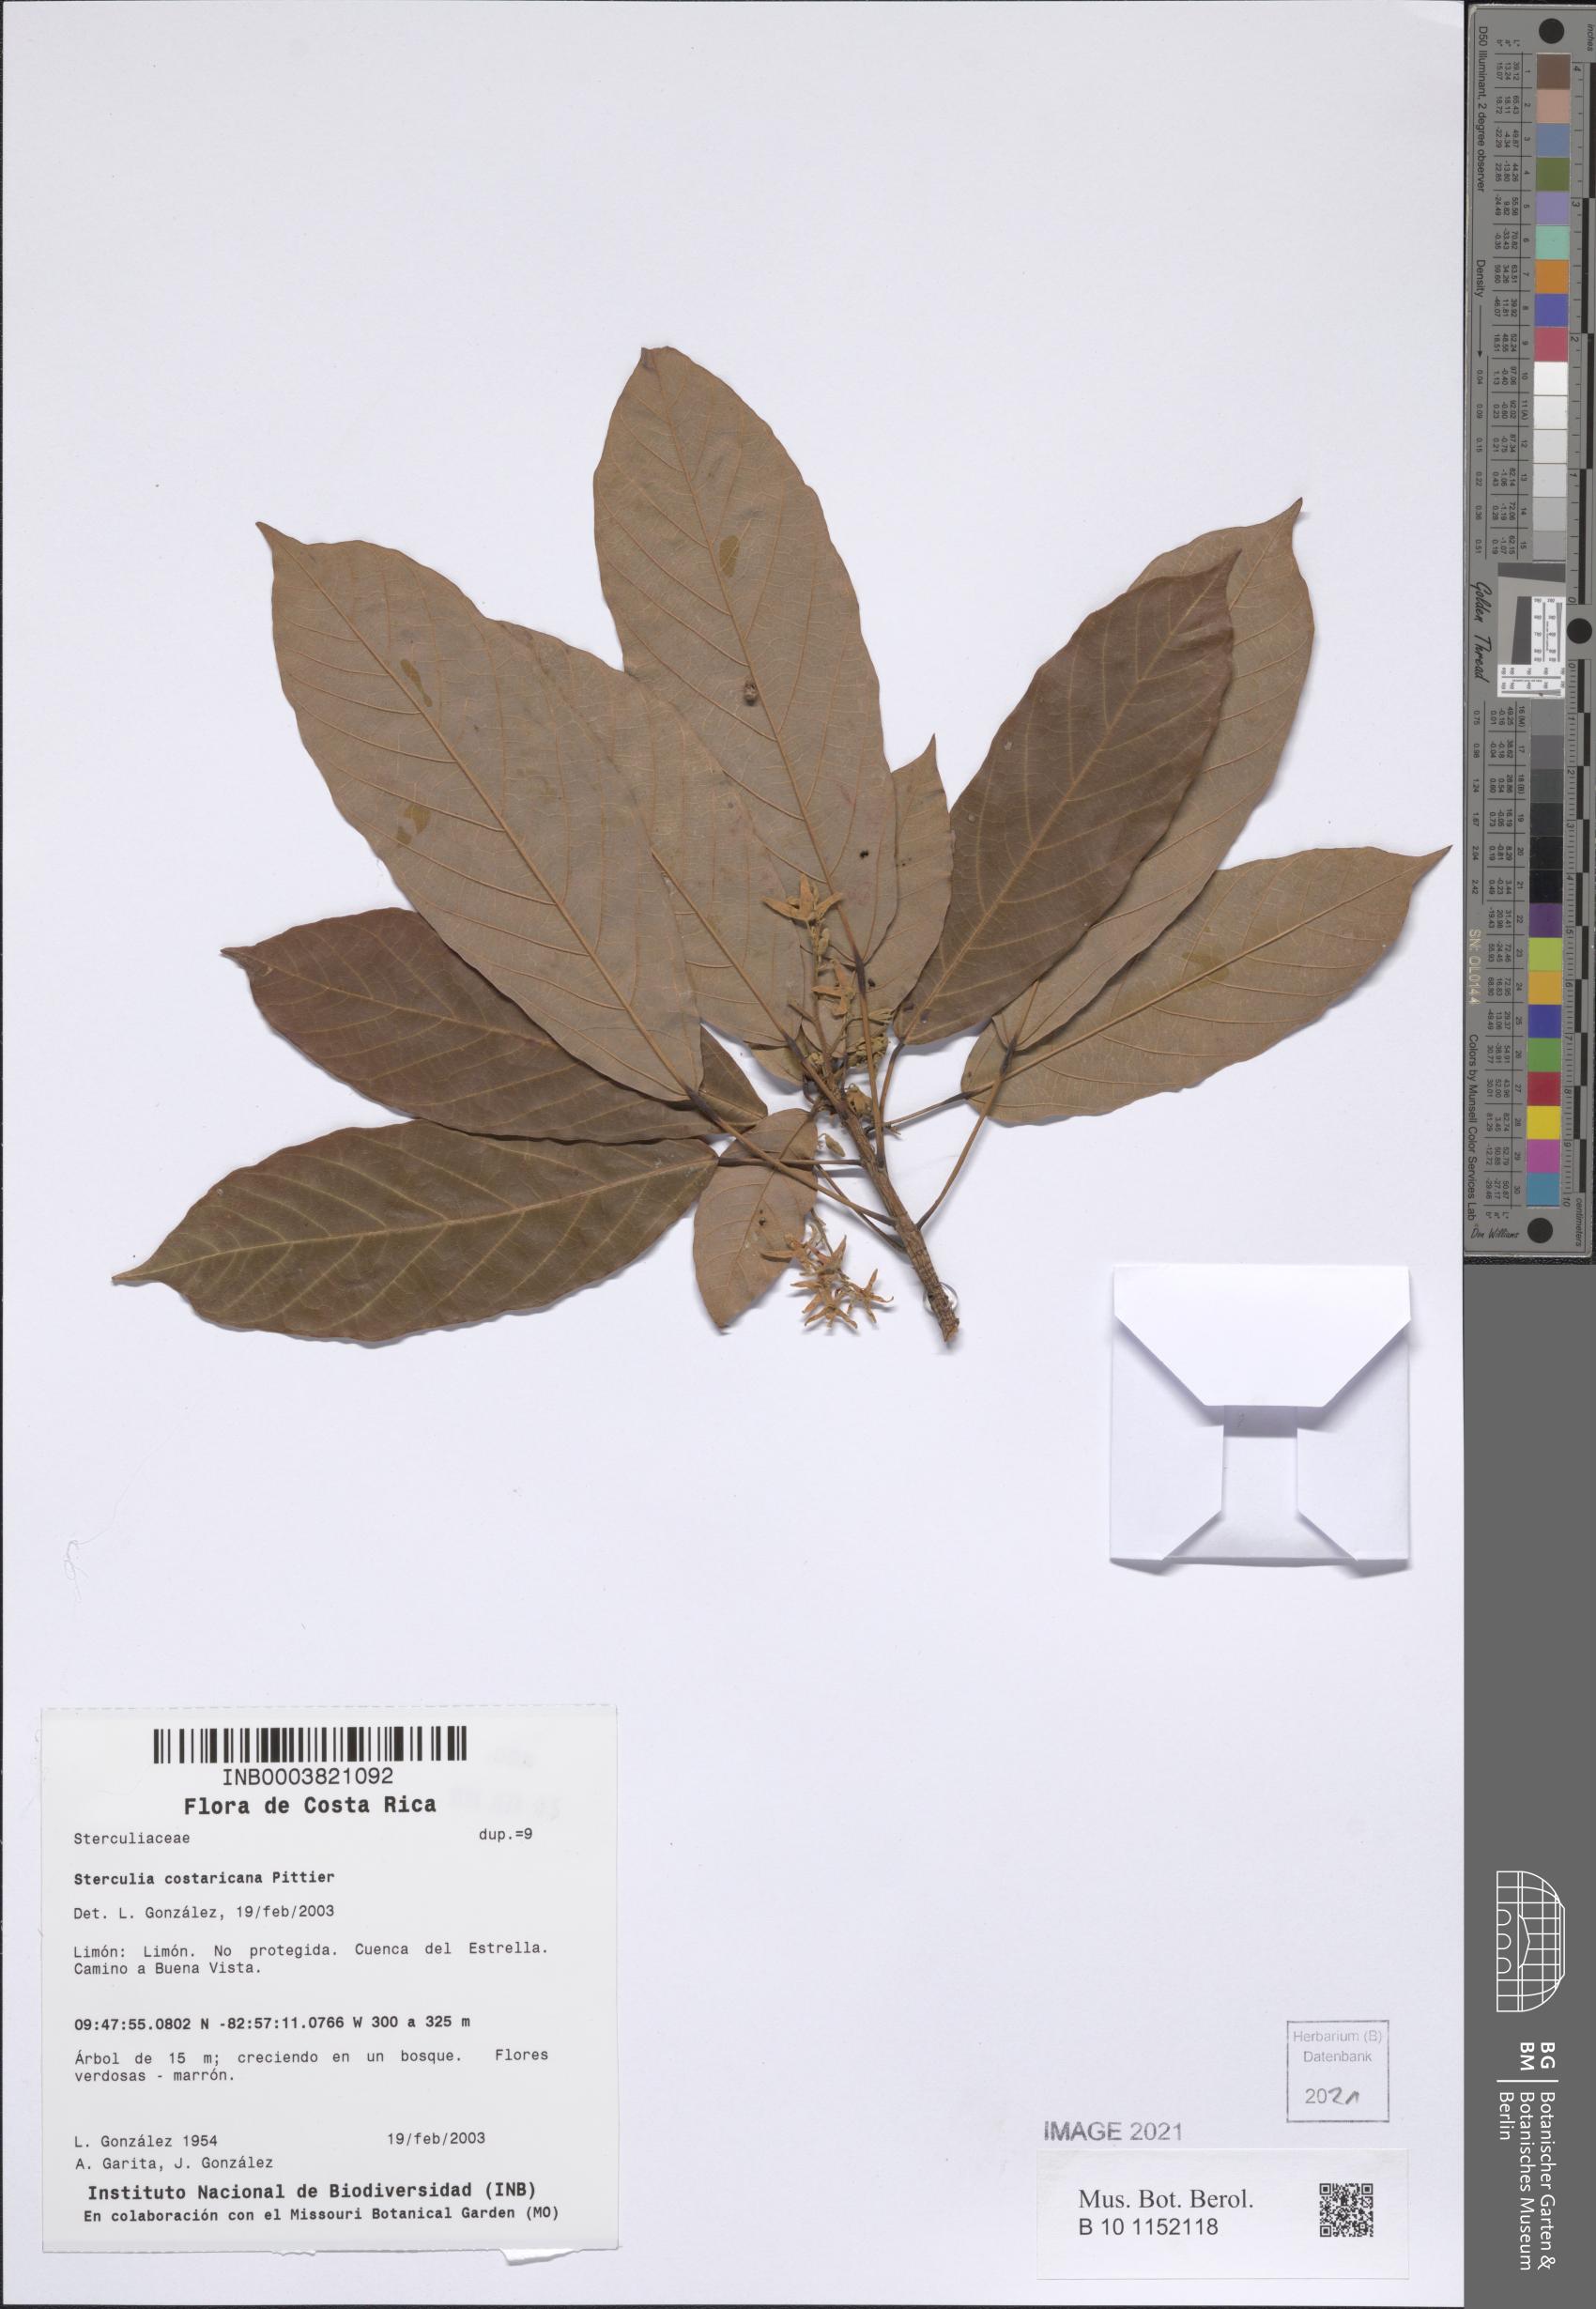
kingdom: Plantae
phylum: Tracheophyta
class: Magnoliopsida
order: Malvales
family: Malvaceae
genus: Sterculia
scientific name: Sterculia costaricana
